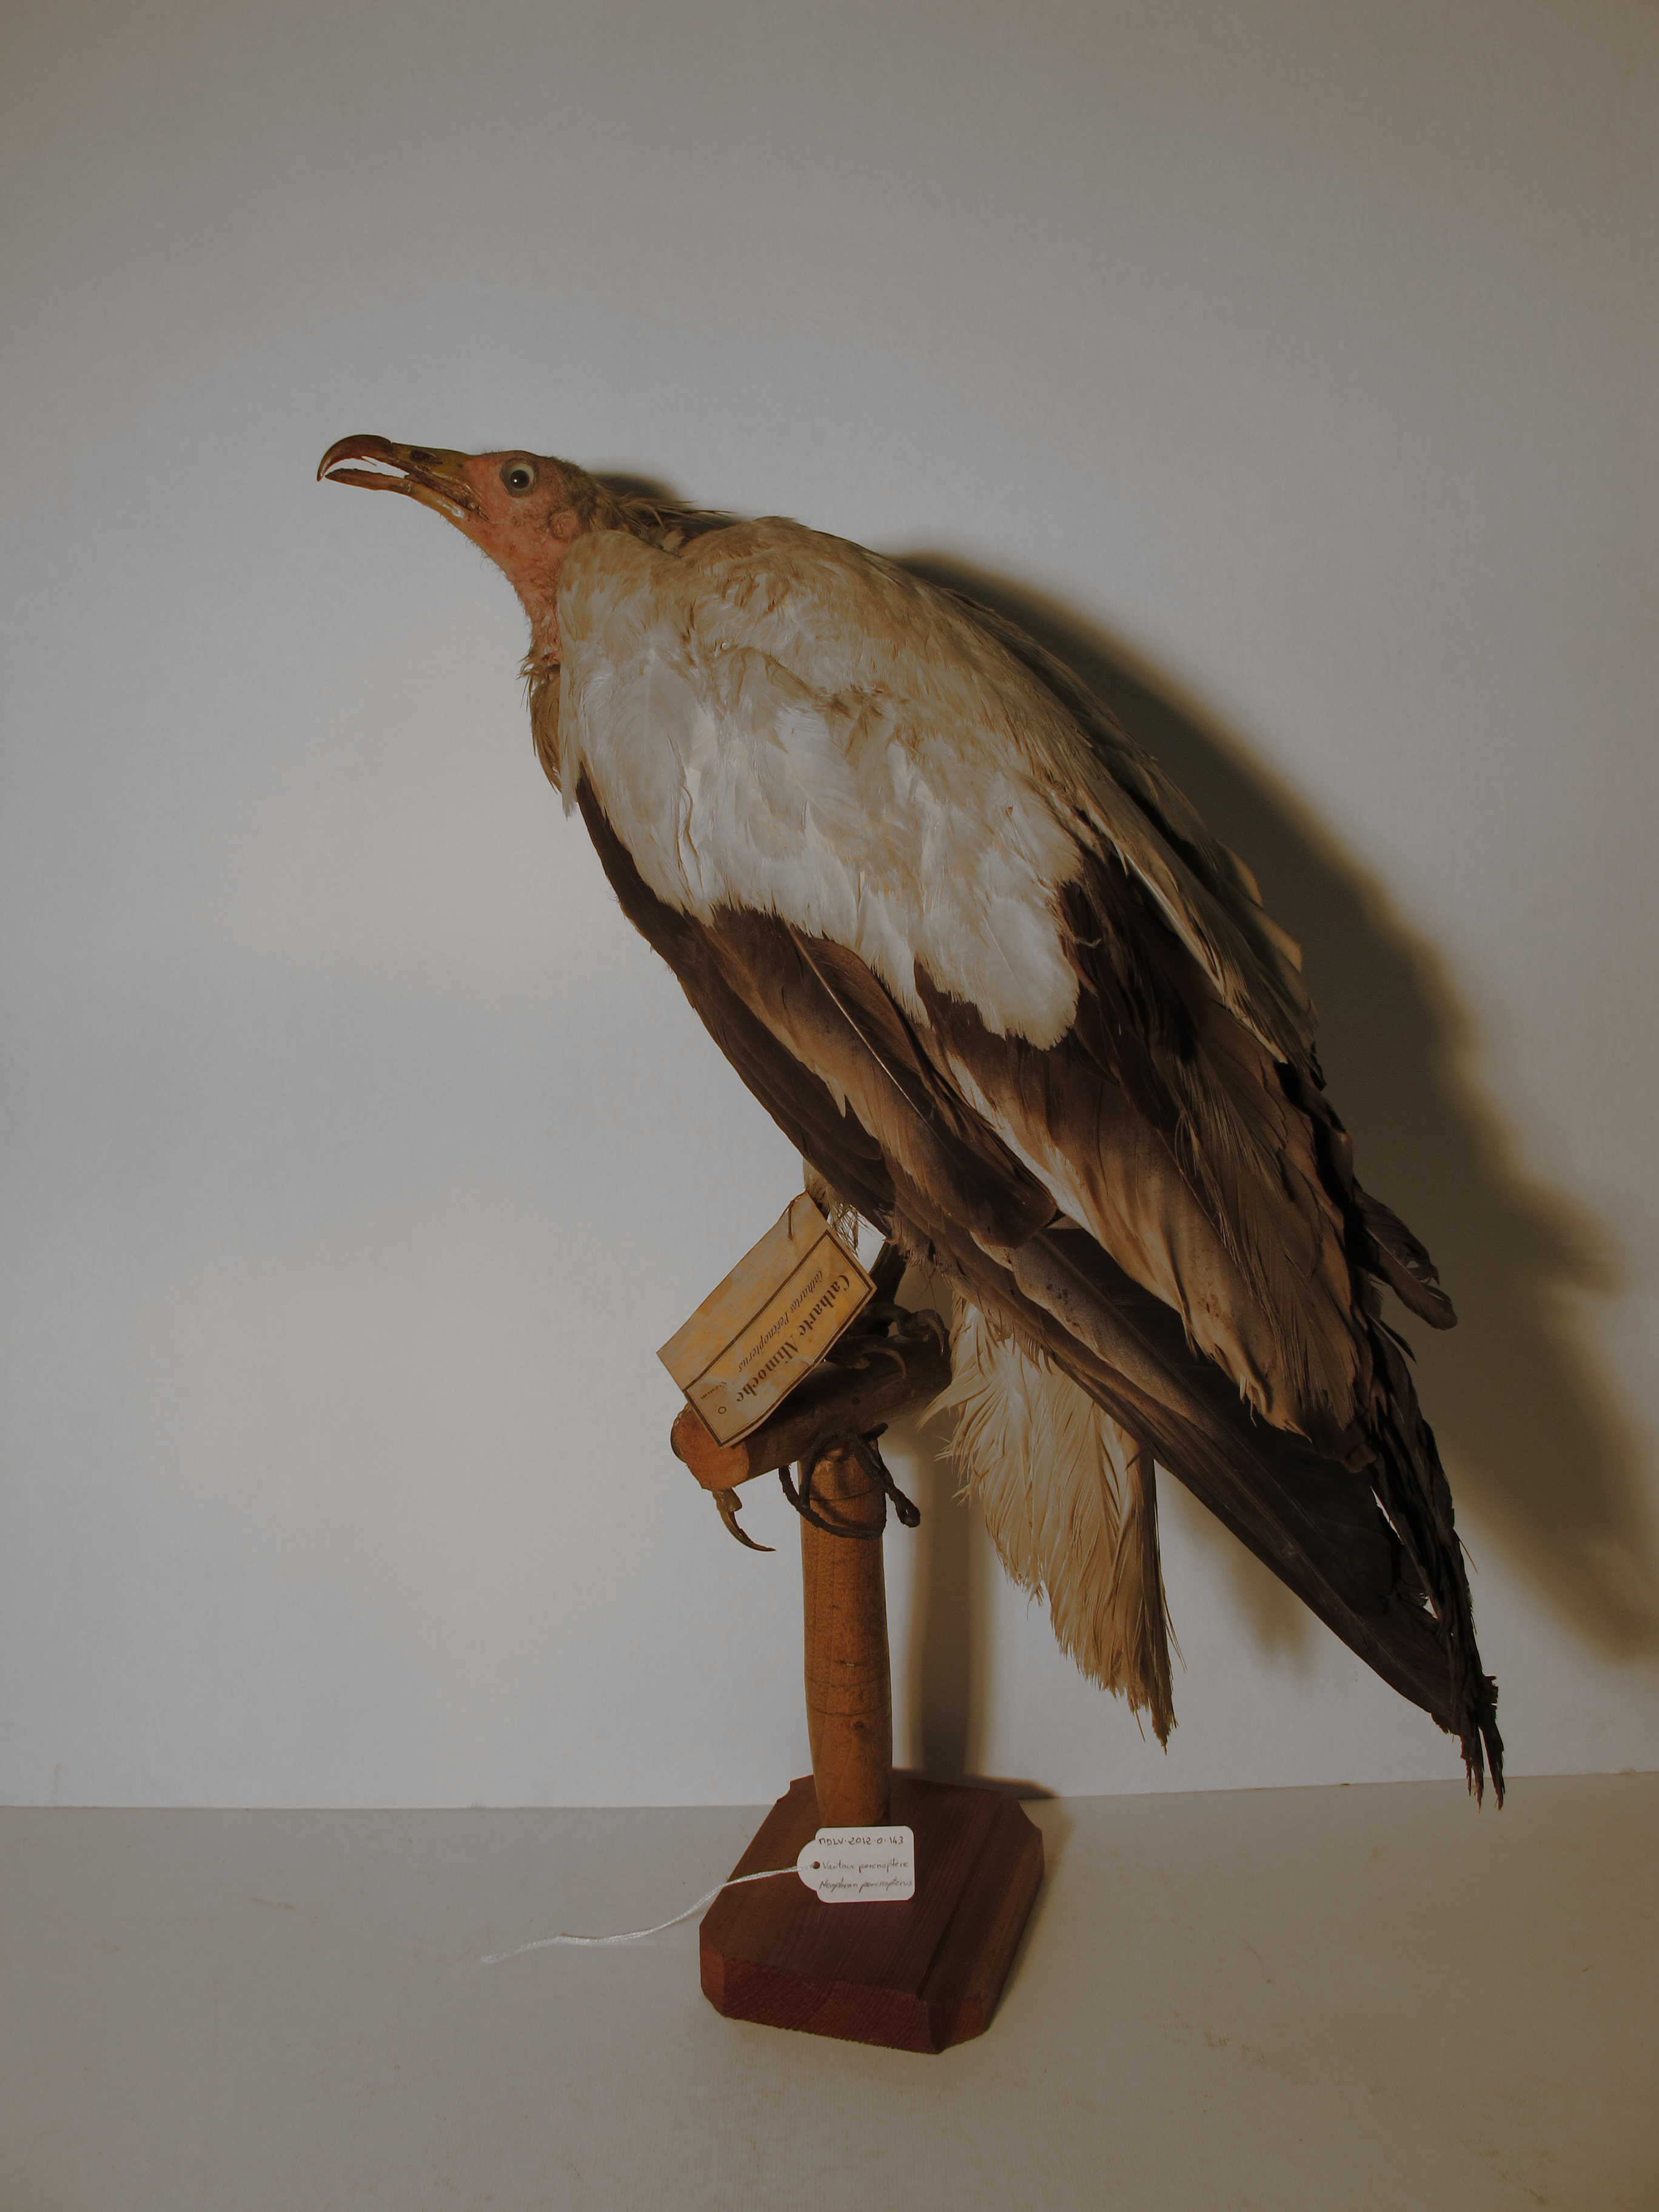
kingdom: Animalia
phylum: Chordata
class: Aves
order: Accipitriformes
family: Accipitridae
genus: Neophron
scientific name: Neophron percnopterus
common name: Egyptian Vulture
